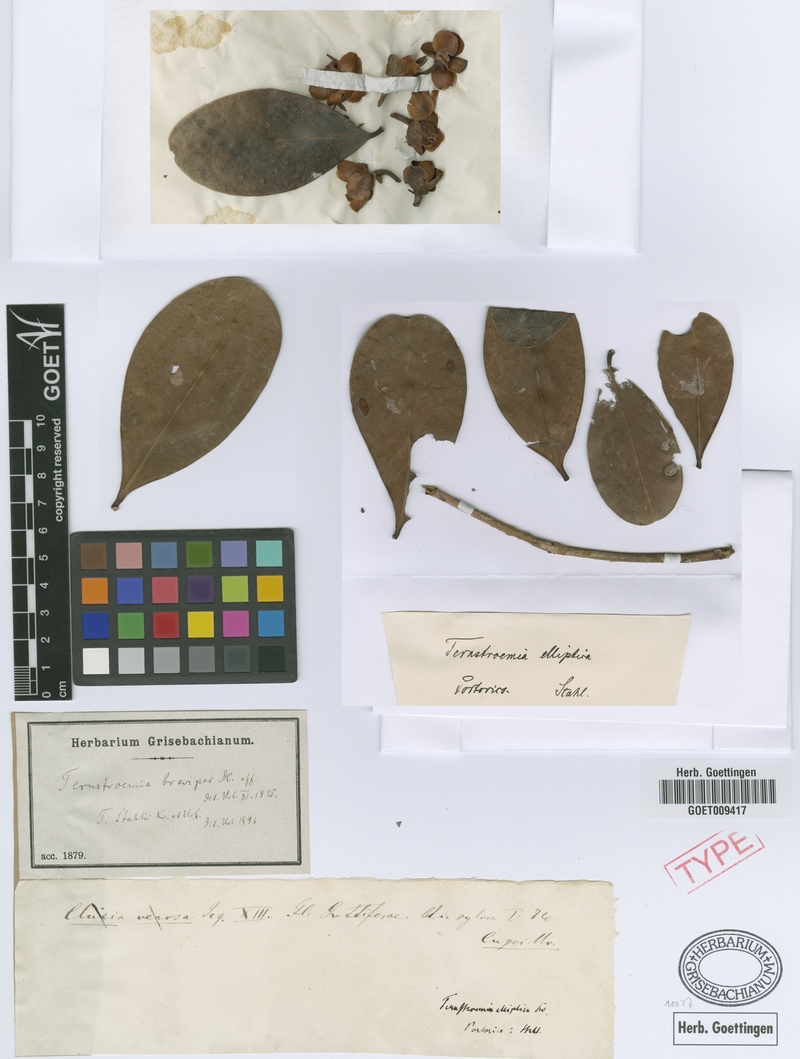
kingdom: Plantae
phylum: Tracheophyta
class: Magnoliopsida
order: Ericales
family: Pentaphylacaceae
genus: Ternstroemia
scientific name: Ternstroemia stahlii
